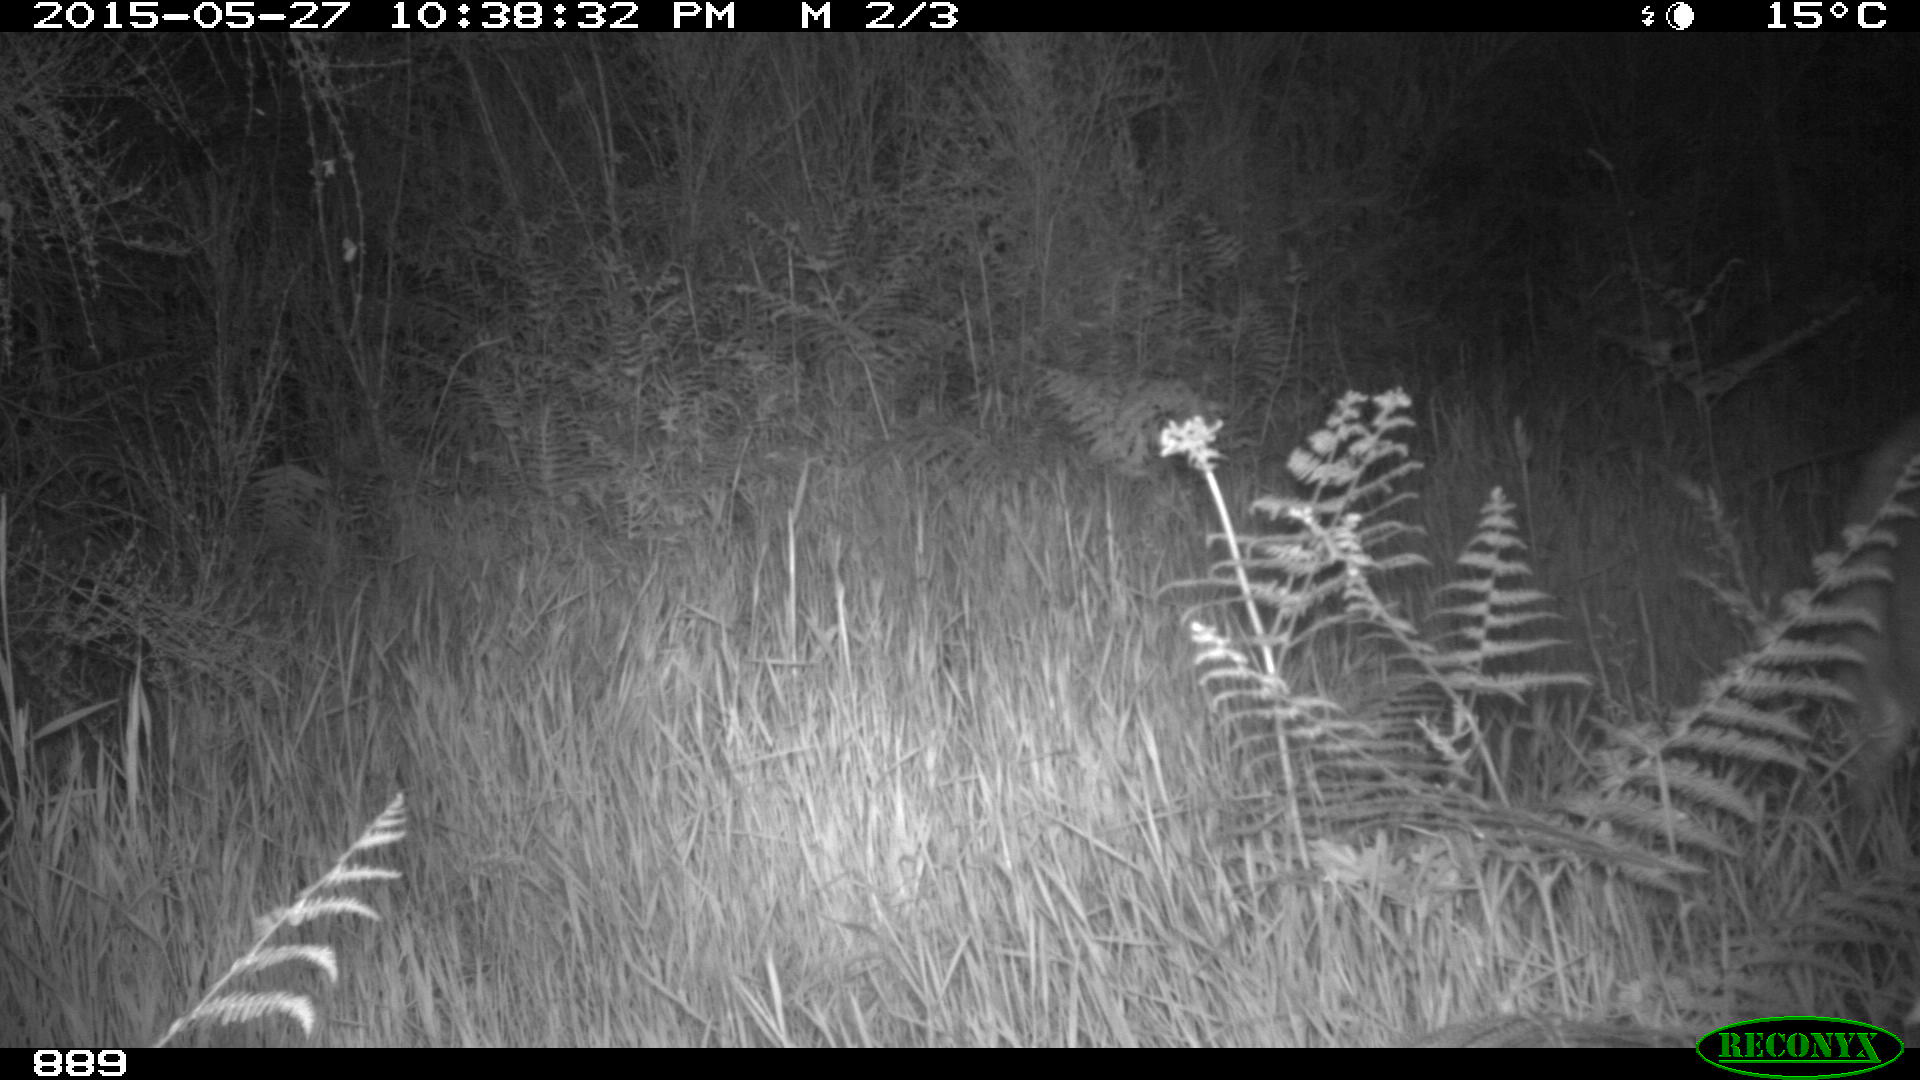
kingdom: Animalia
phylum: Chordata
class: Mammalia
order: Artiodactyla
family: Cervidae
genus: Capreolus
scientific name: Capreolus capreolus
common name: Western roe deer
